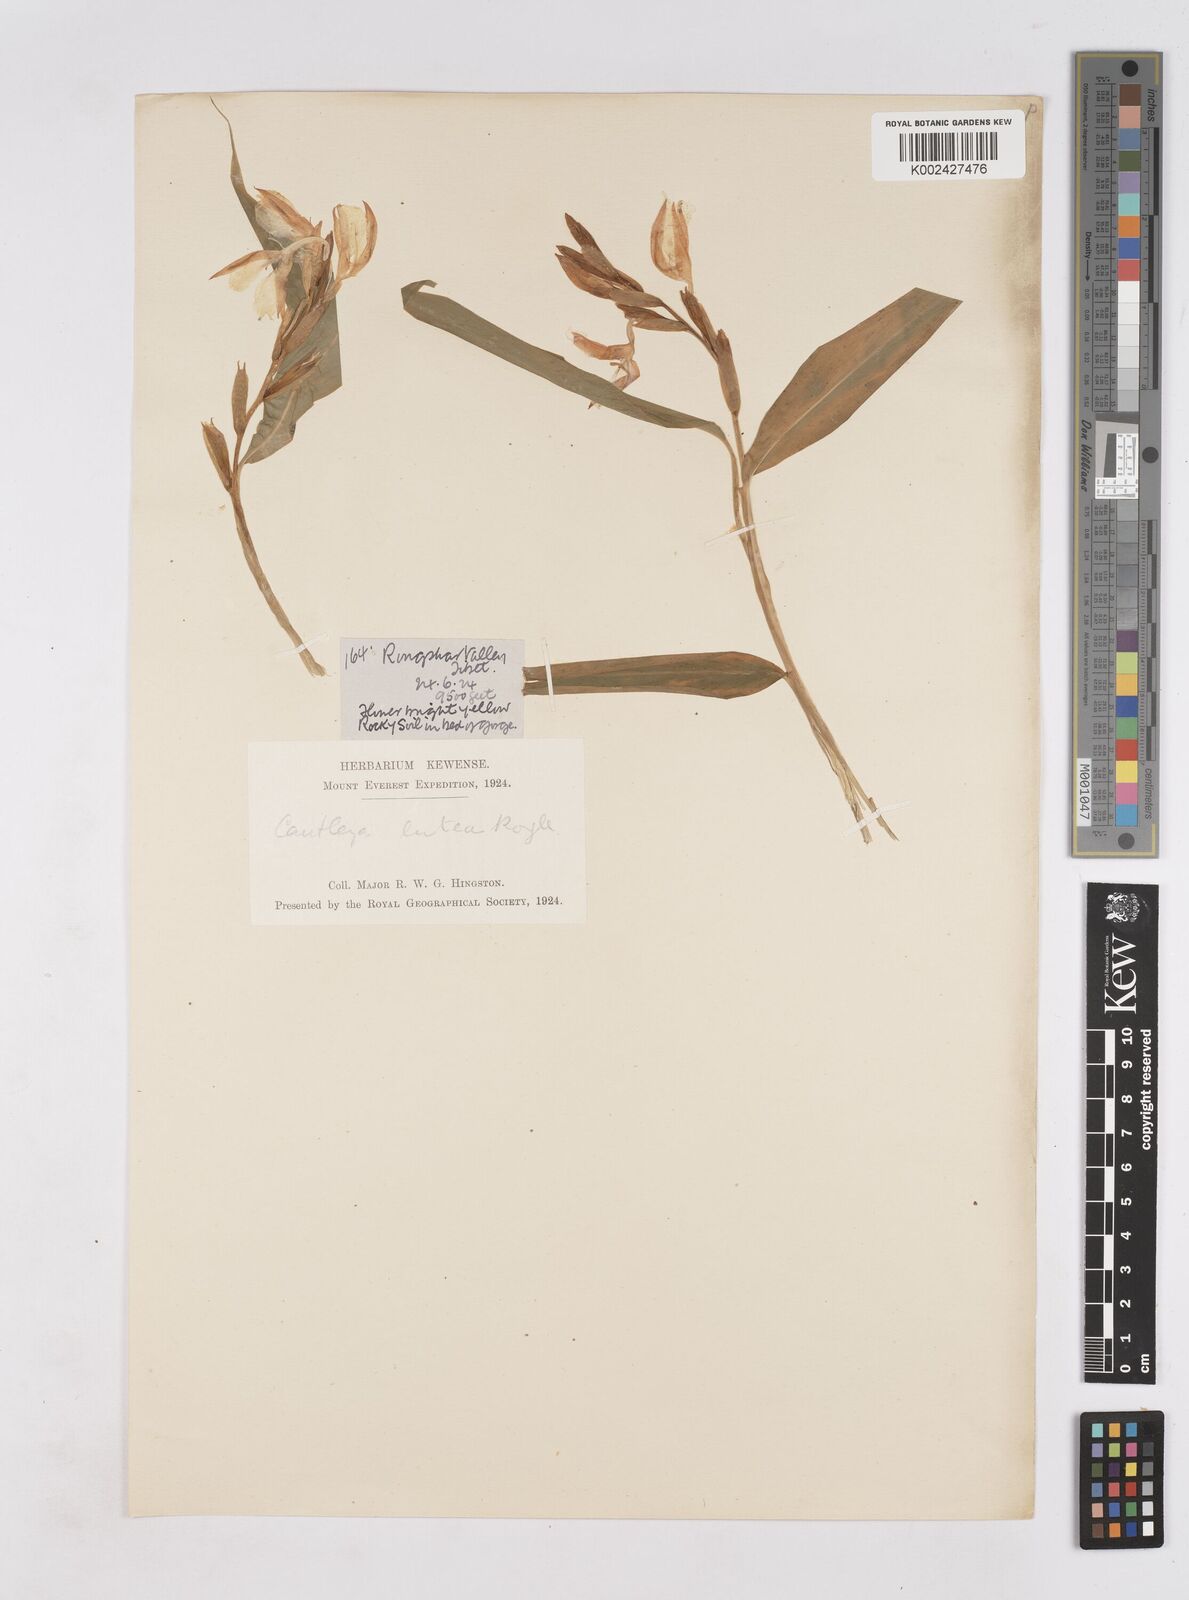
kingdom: Plantae
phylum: Tracheophyta
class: Liliopsida
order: Zingiberales
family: Zingiberaceae
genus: Cautleya
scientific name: Cautleya gracilis
